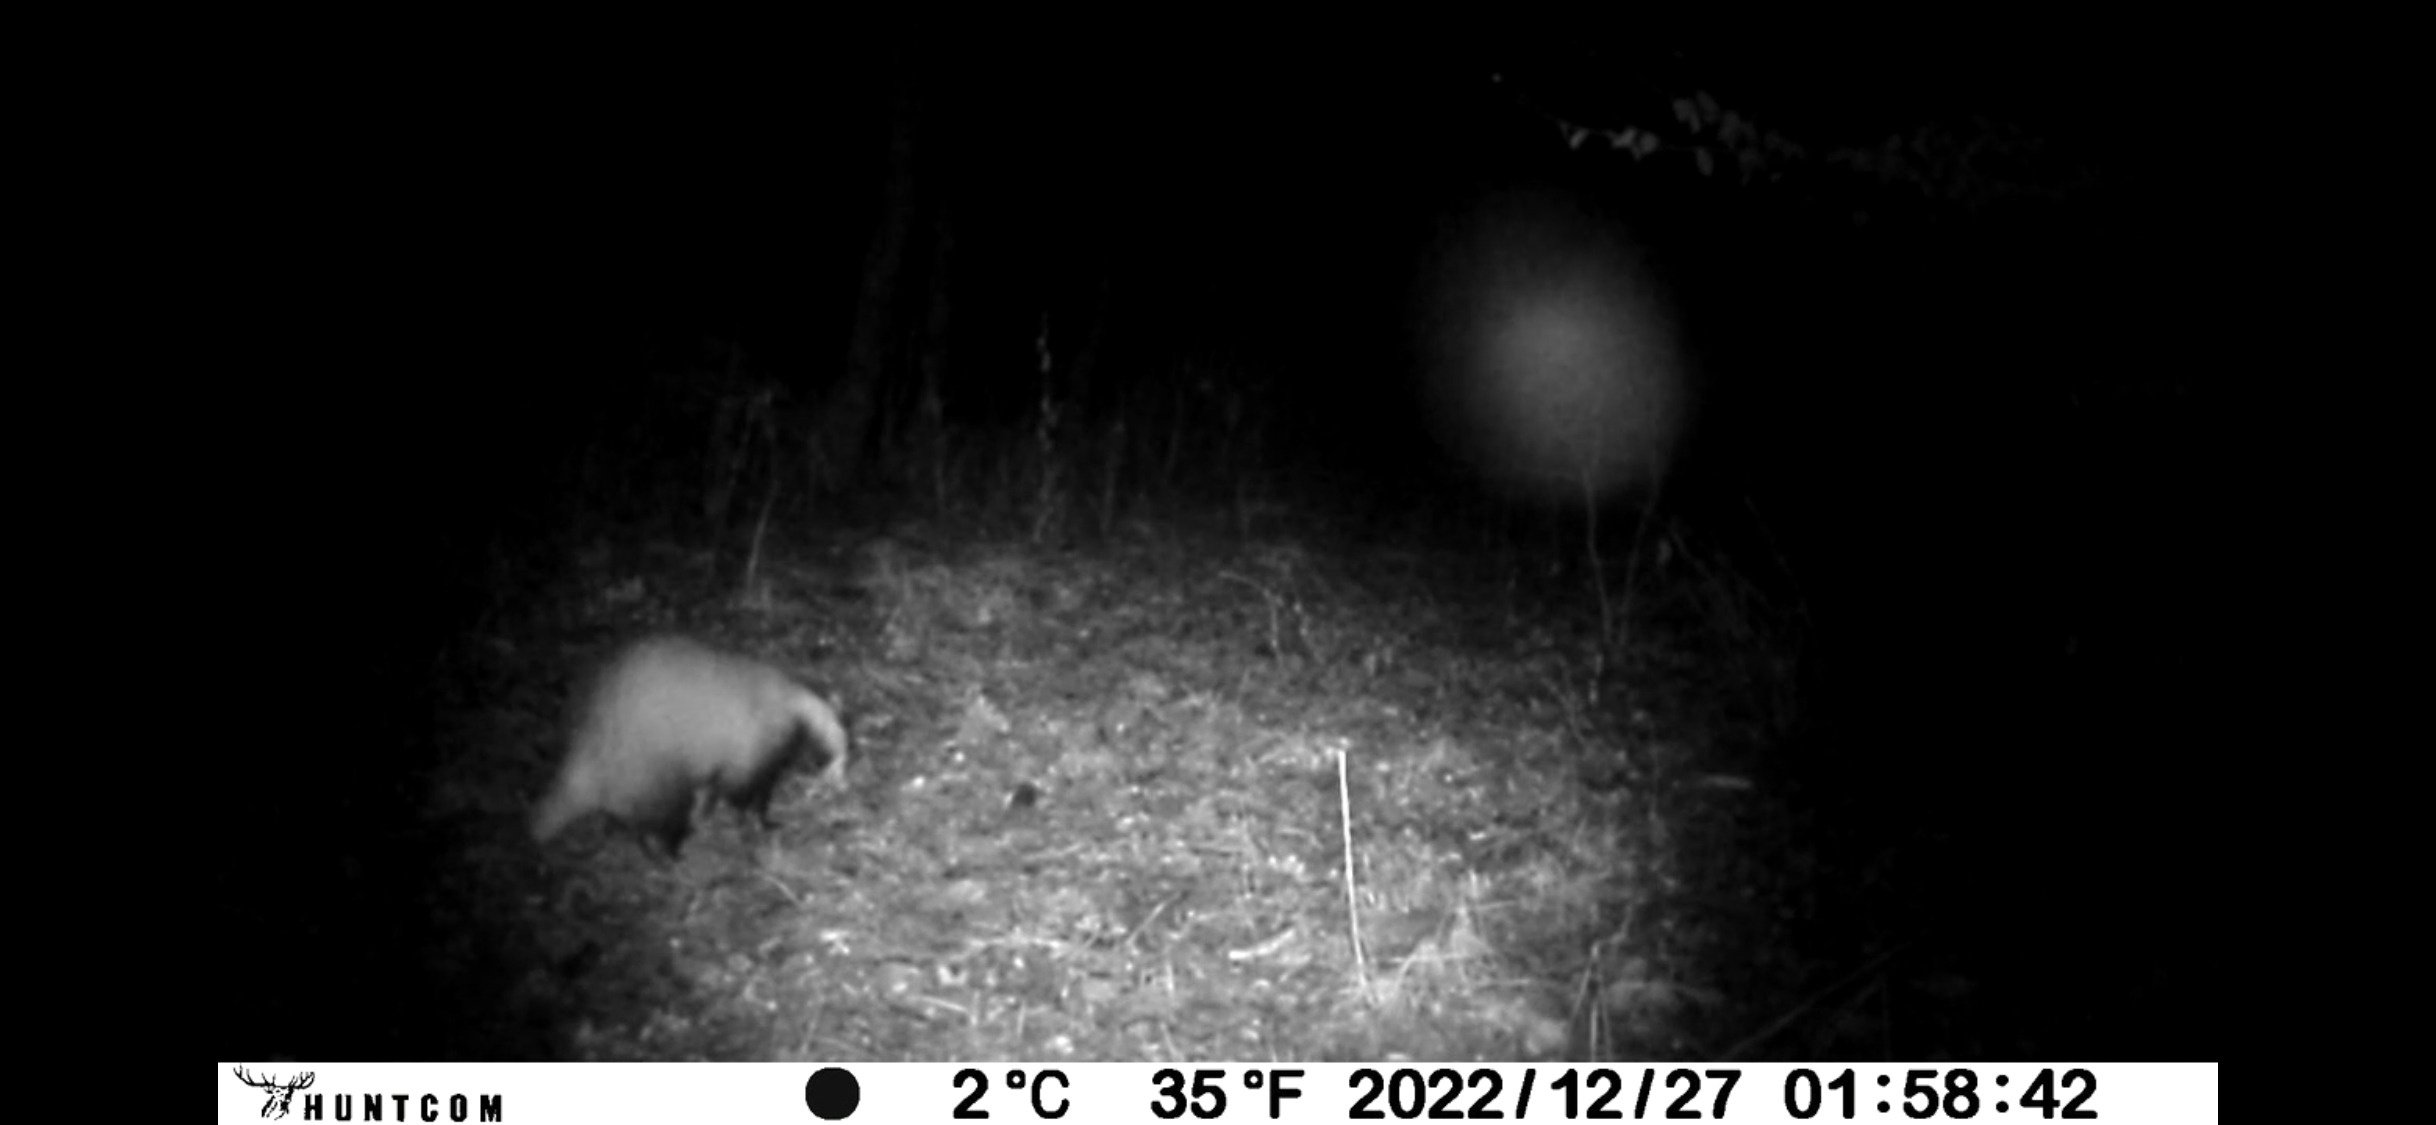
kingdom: Animalia
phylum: Chordata
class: Mammalia
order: Carnivora
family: Mustelidae
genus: Meles
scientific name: Meles meles
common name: Grævling
